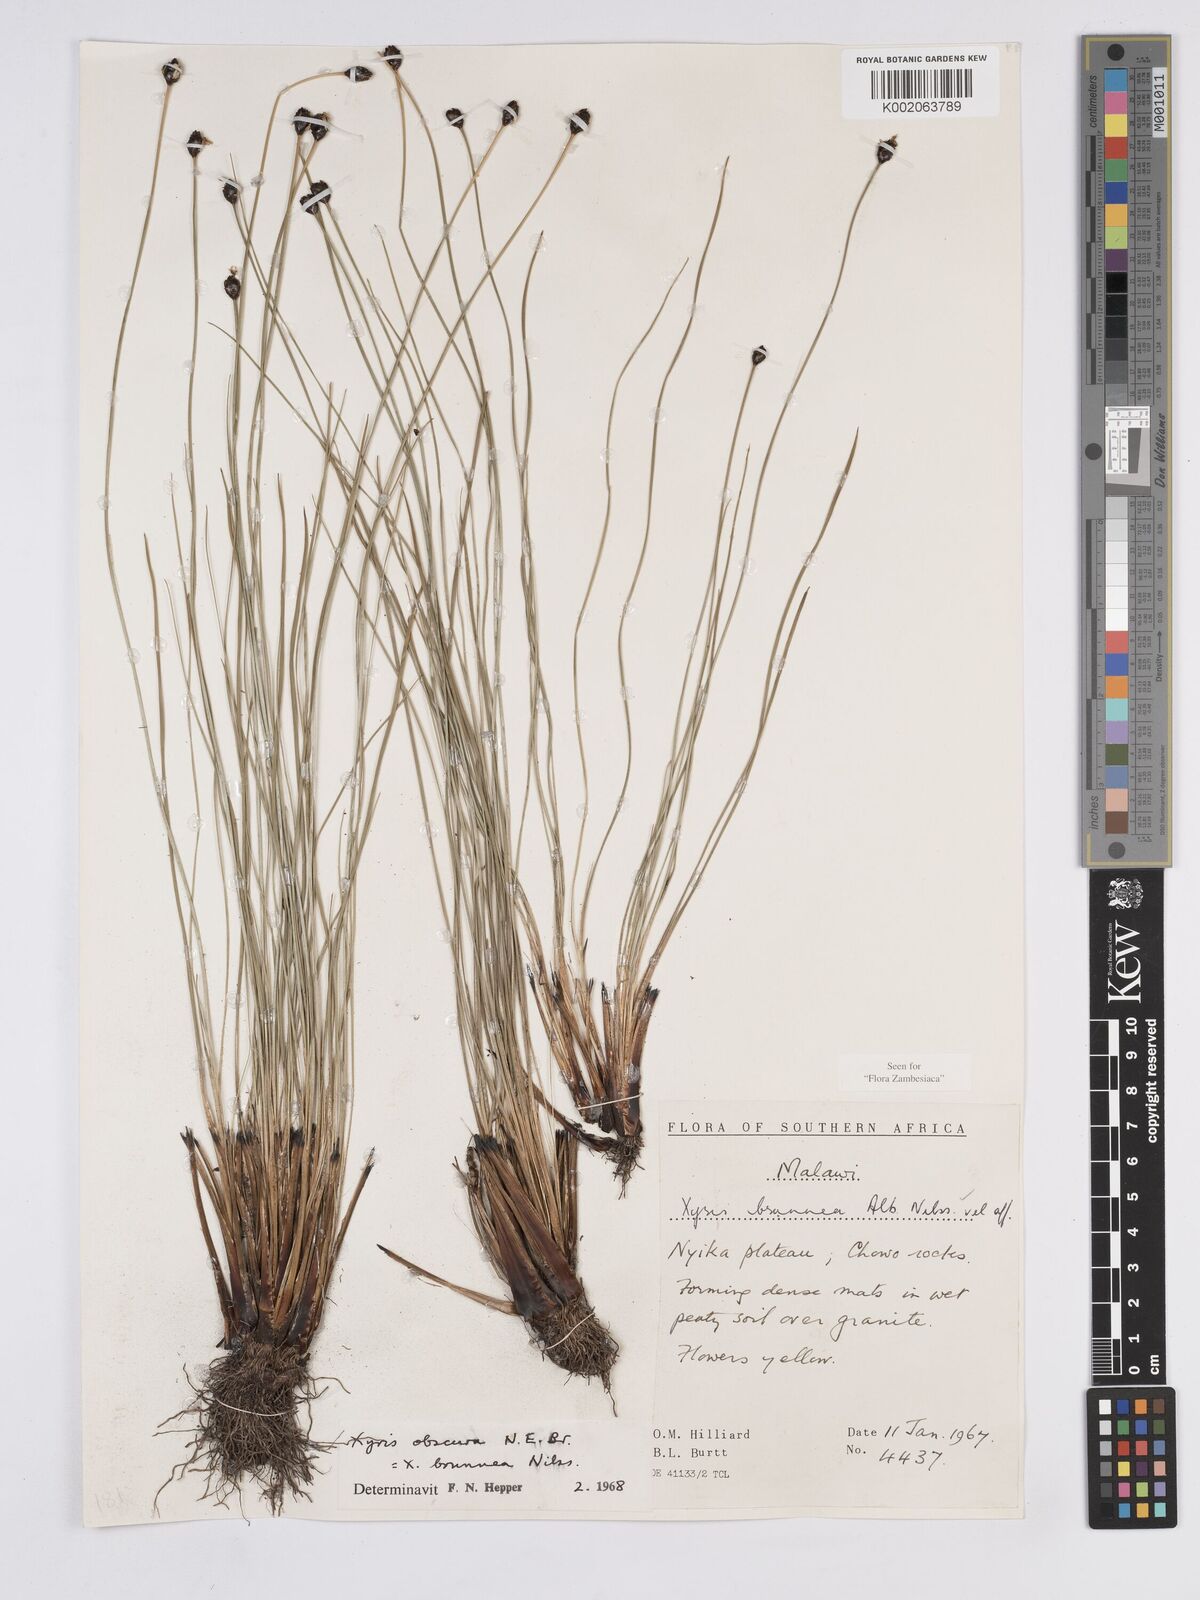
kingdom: Plantae
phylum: Tracheophyta
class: Liliopsida
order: Poales
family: Xyridaceae
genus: Xyris
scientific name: Xyris obscura
